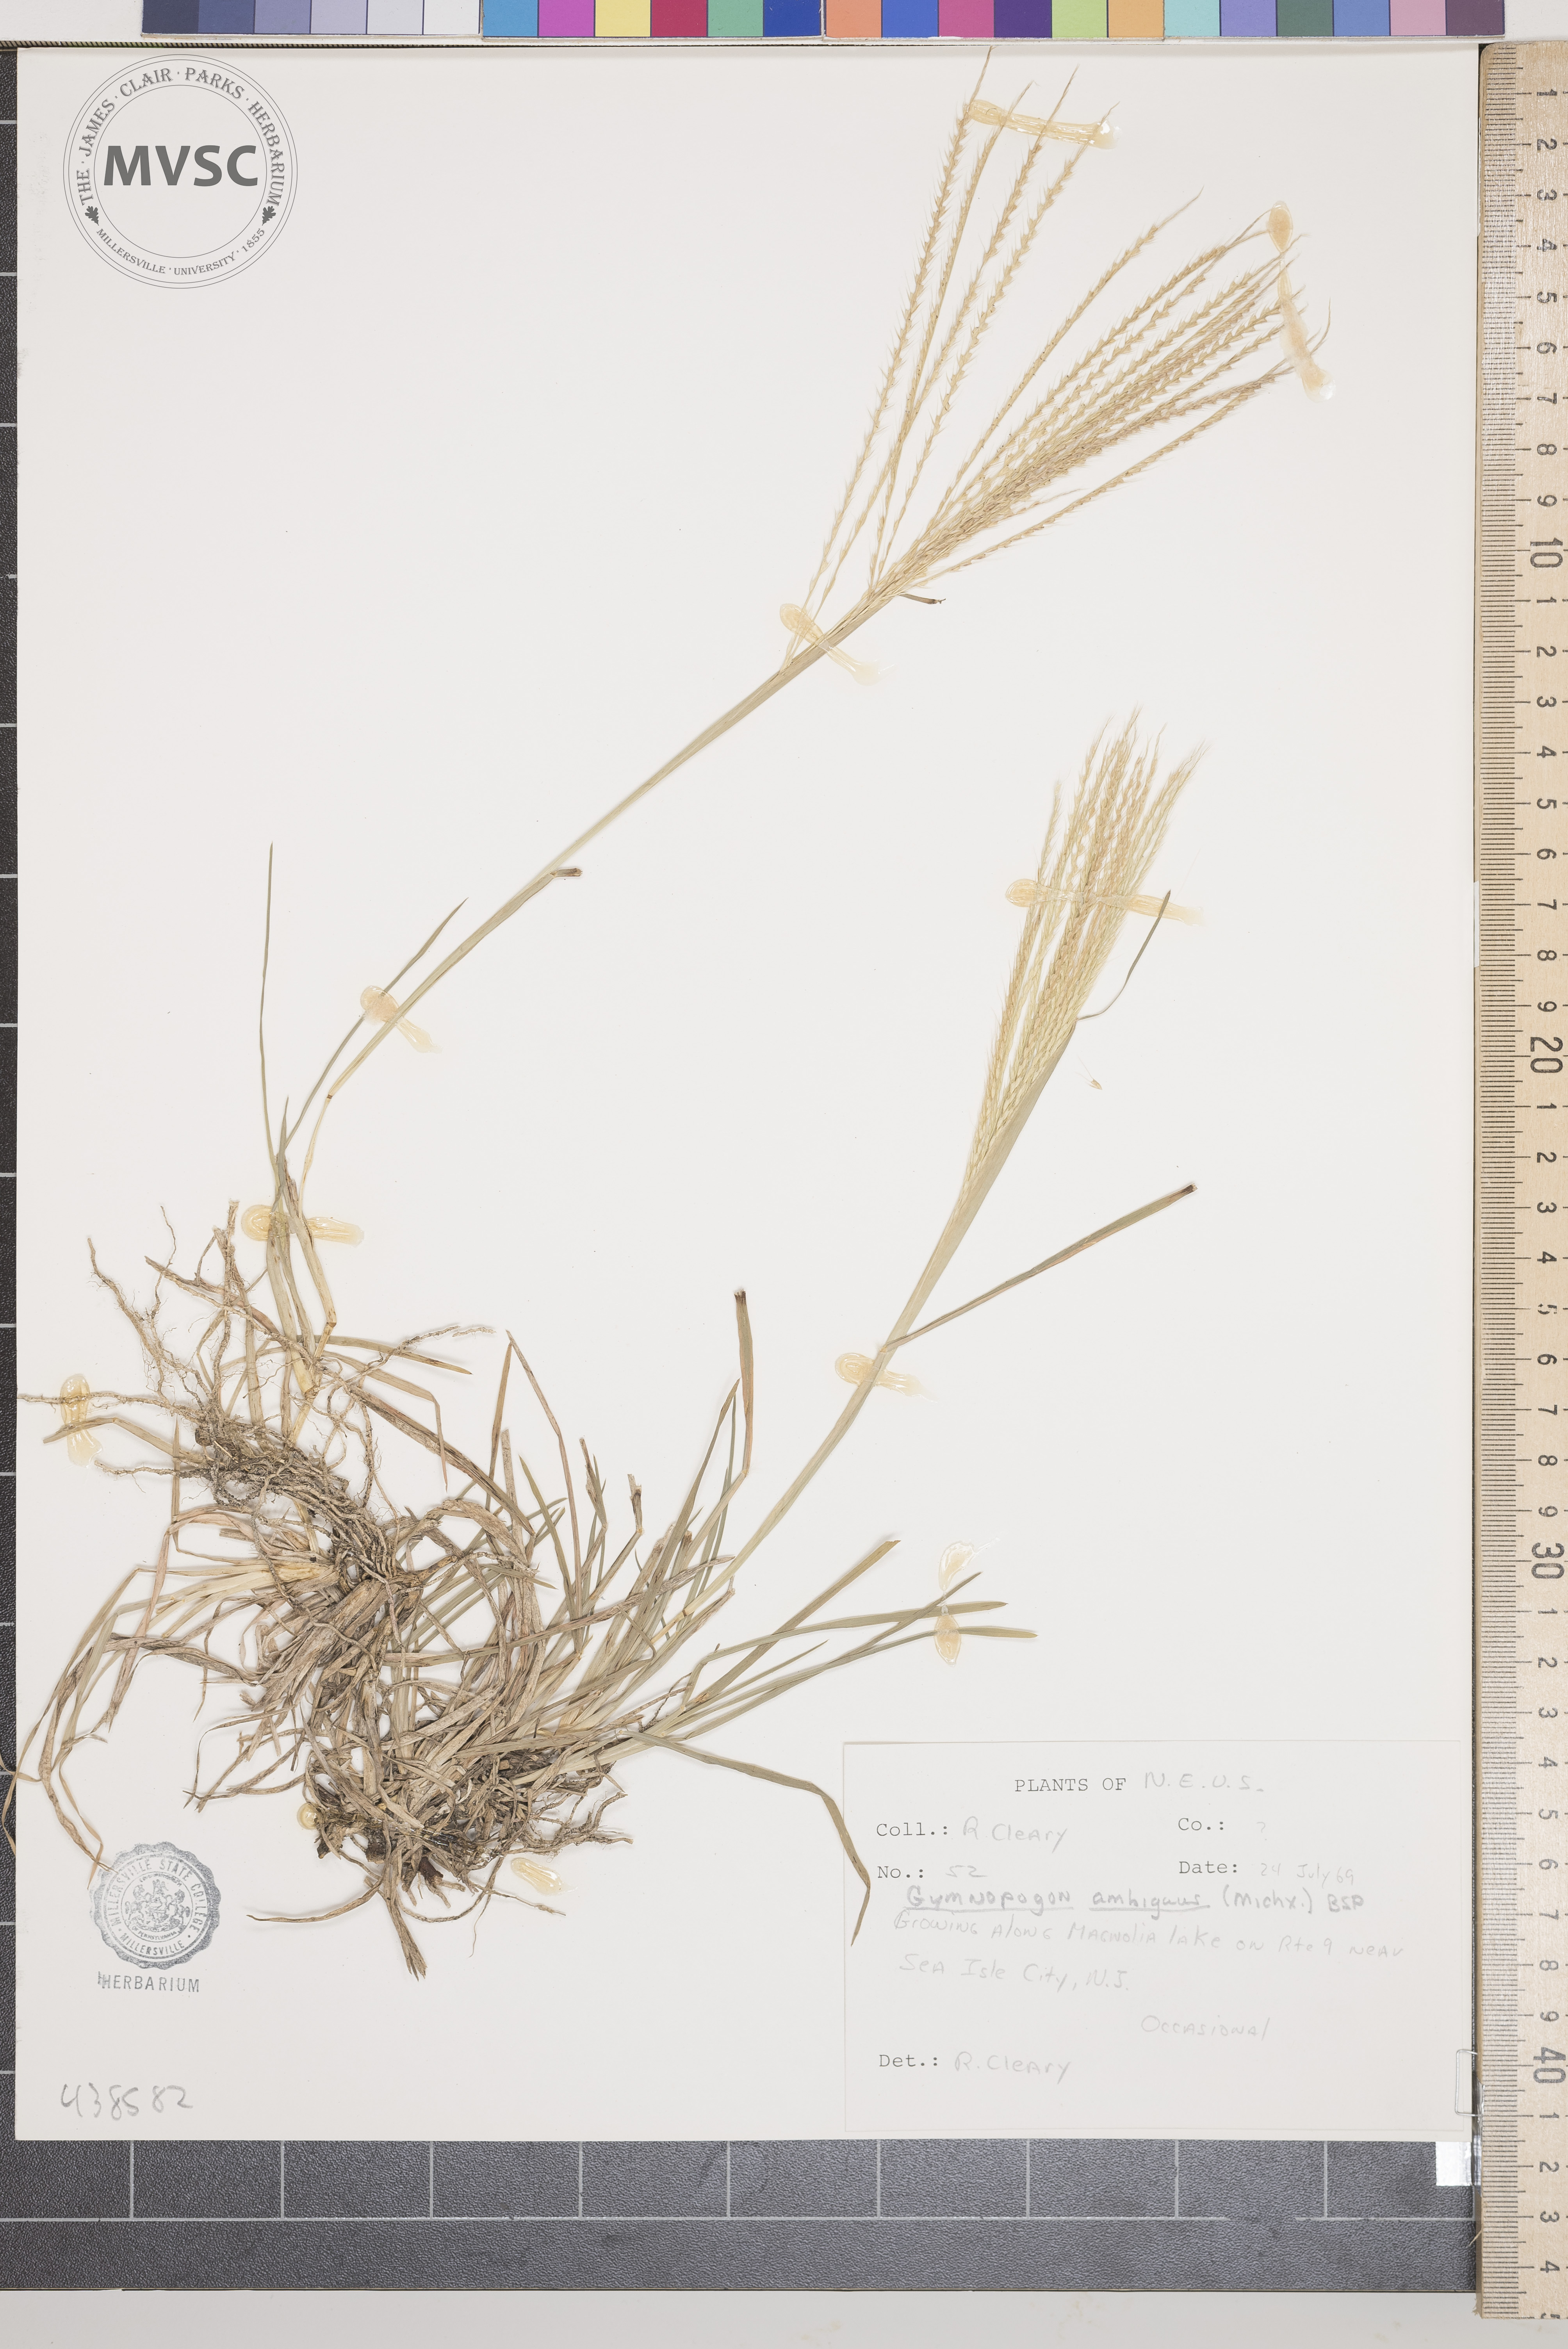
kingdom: Plantae
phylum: Tracheophyta
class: Liliopsida
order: Poales
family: Poaceae
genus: Gymnopogon
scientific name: Gymnopogon ambiguus
